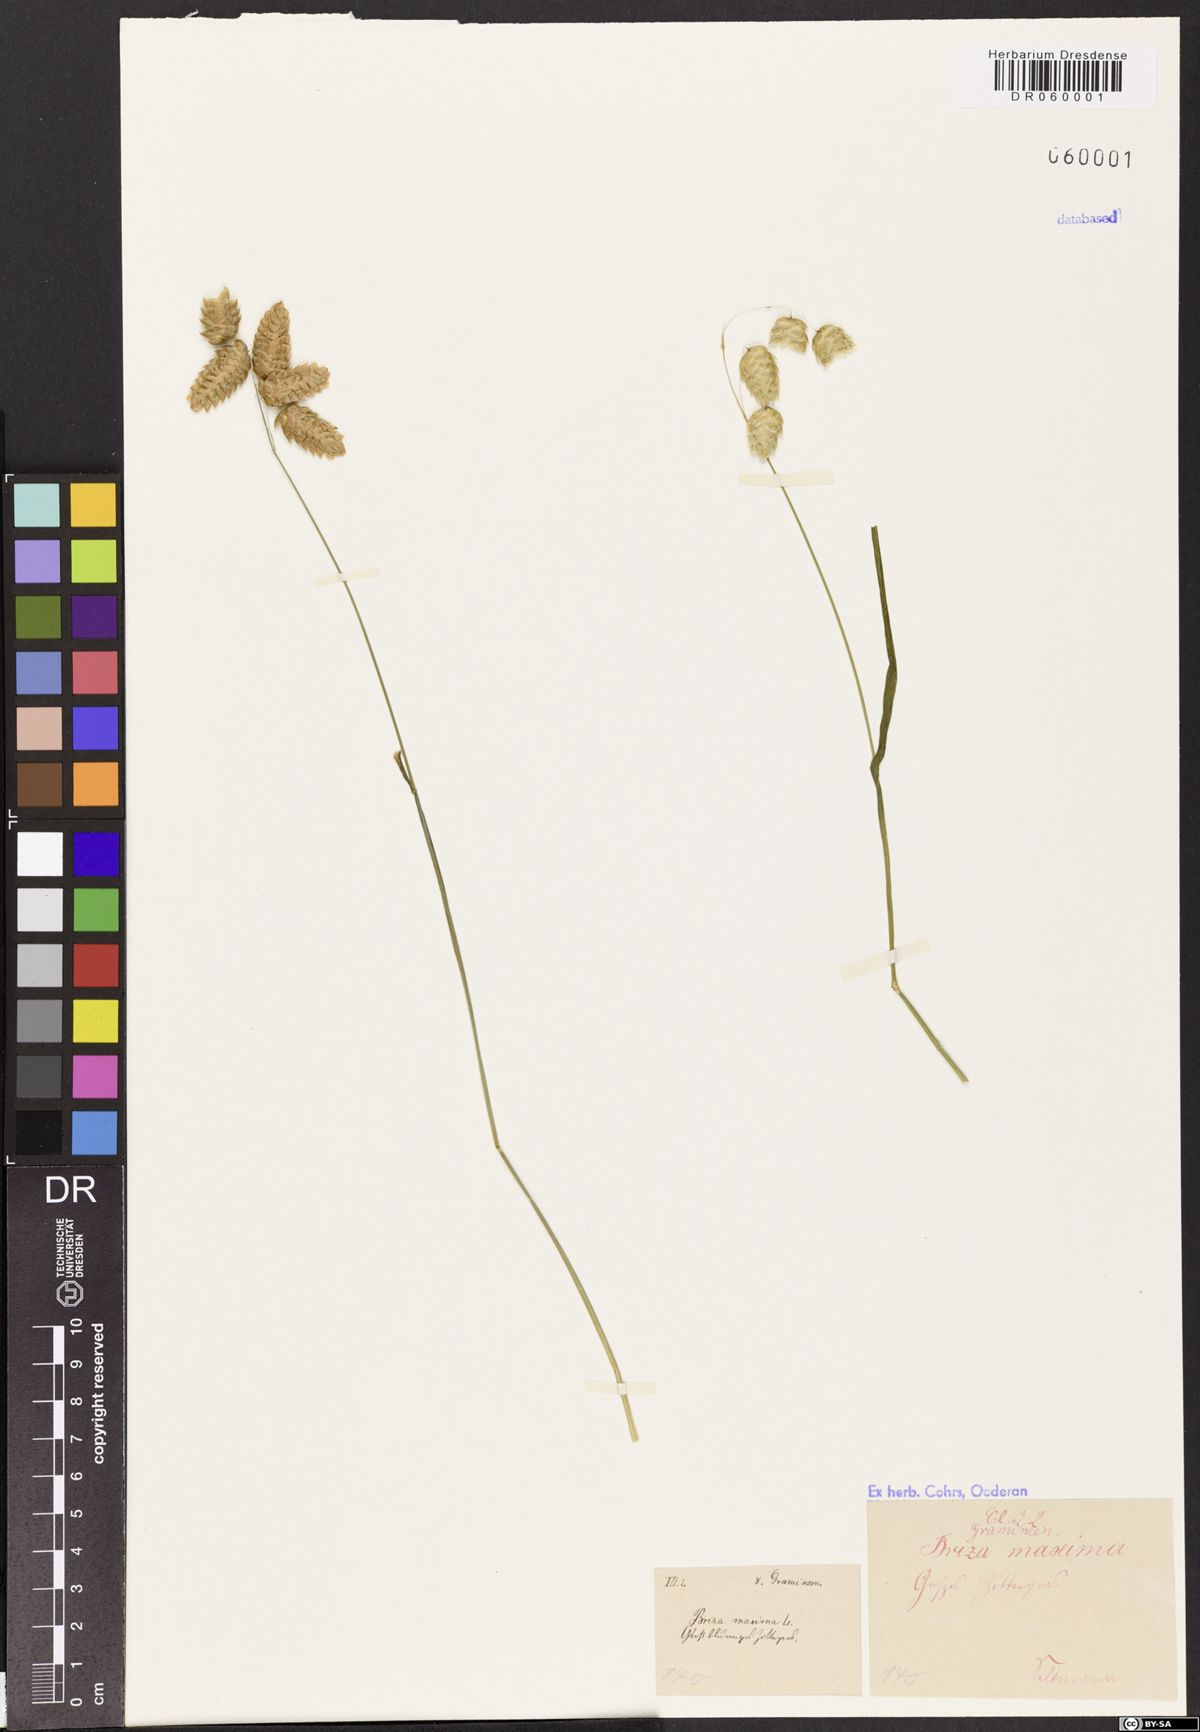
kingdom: Plantae
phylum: Tracheophyta
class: Liliopsida
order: Poales
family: Poaceae
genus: Briza
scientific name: Briza maxima
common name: Big quakinggrass
